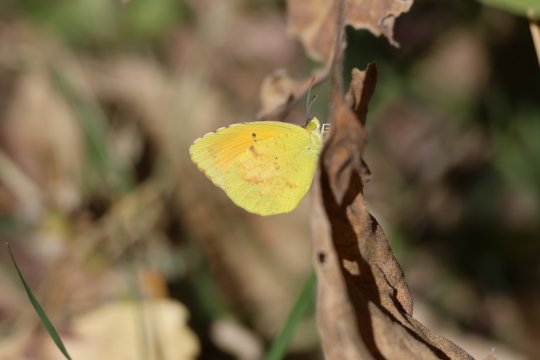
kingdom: Animalia
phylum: Arthropoda
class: Insecta
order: Lepidoptera
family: Pieridae
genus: Abaeis
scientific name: Abaeis nicippe
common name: Sleepy Orange
